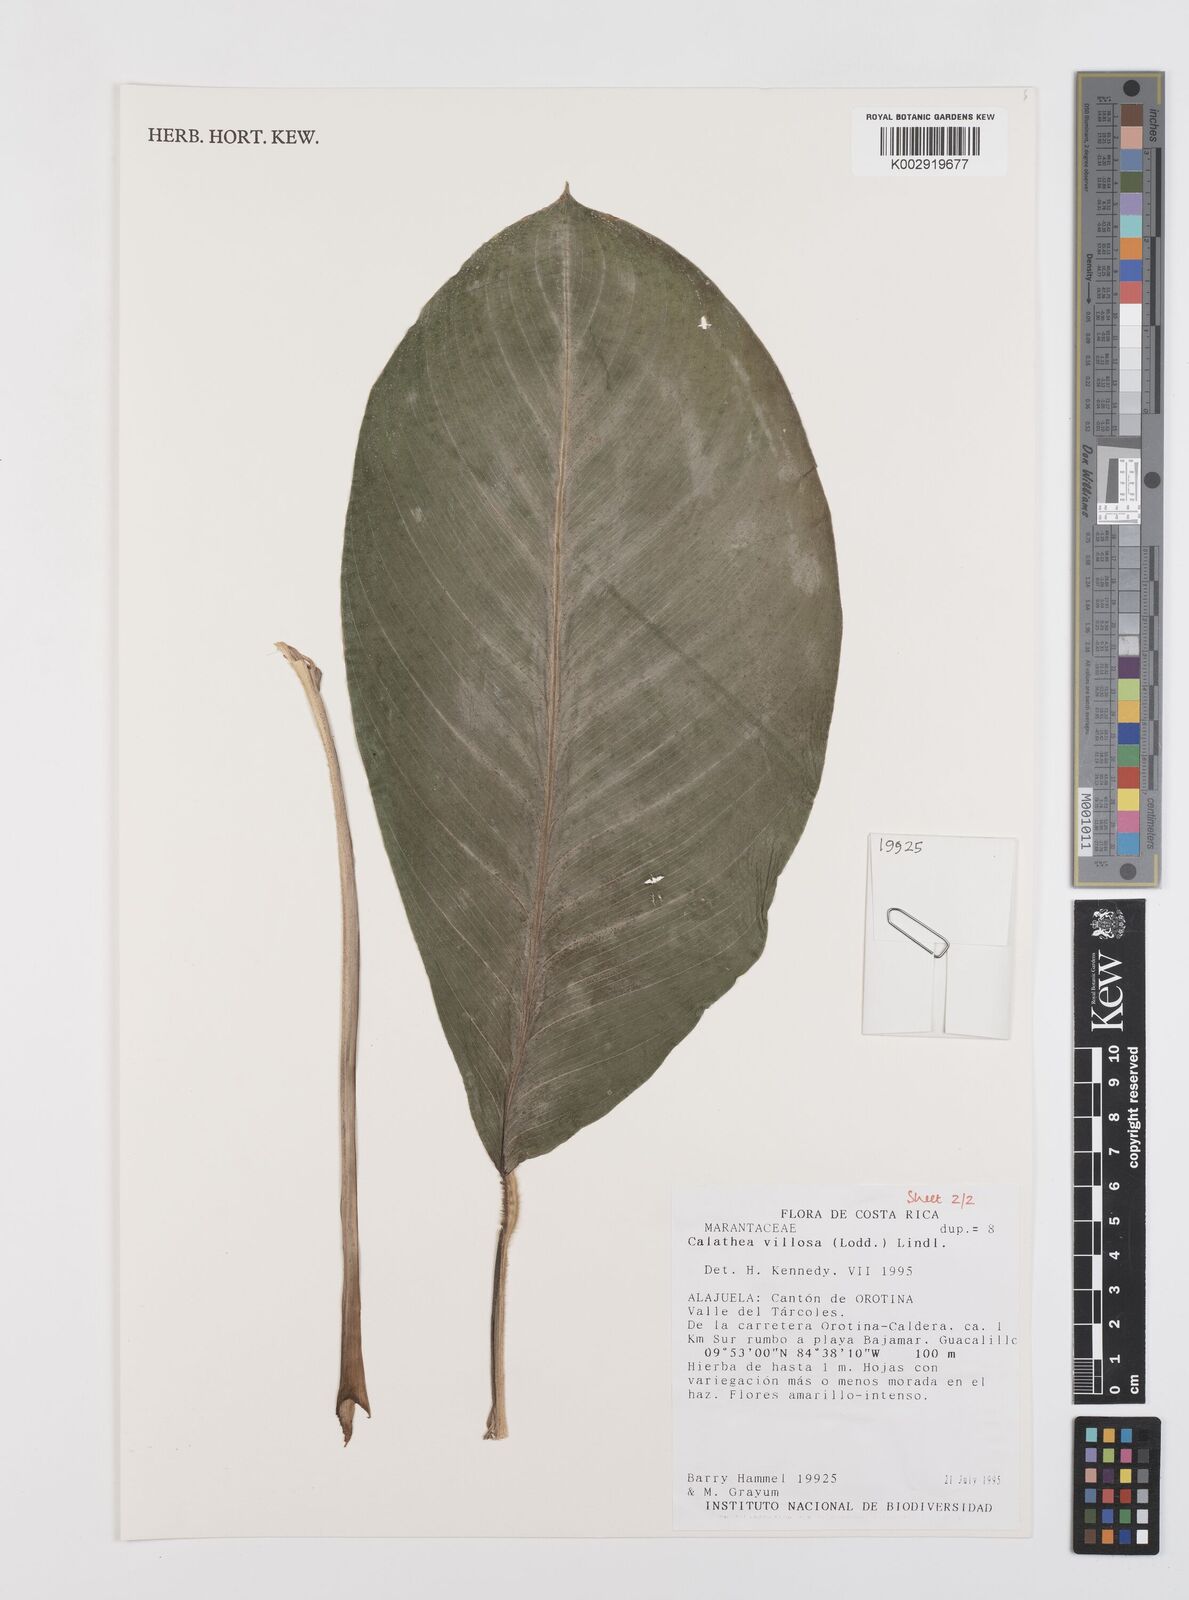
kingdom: Plantae
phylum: Tracheophyta
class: Liliopsida
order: Zingiberales
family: Marantaceae
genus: Goeppertia
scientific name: Goeppertia villosa
